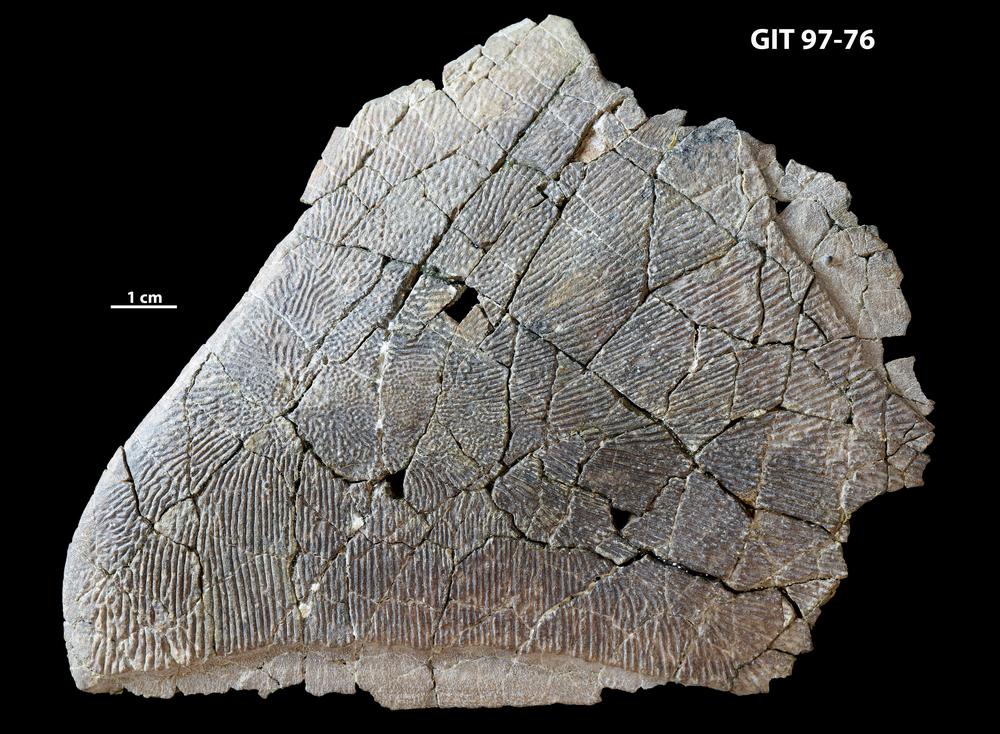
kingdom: Animalia
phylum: Chordata
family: Holonematidae
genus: Holonema
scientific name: Holonema
